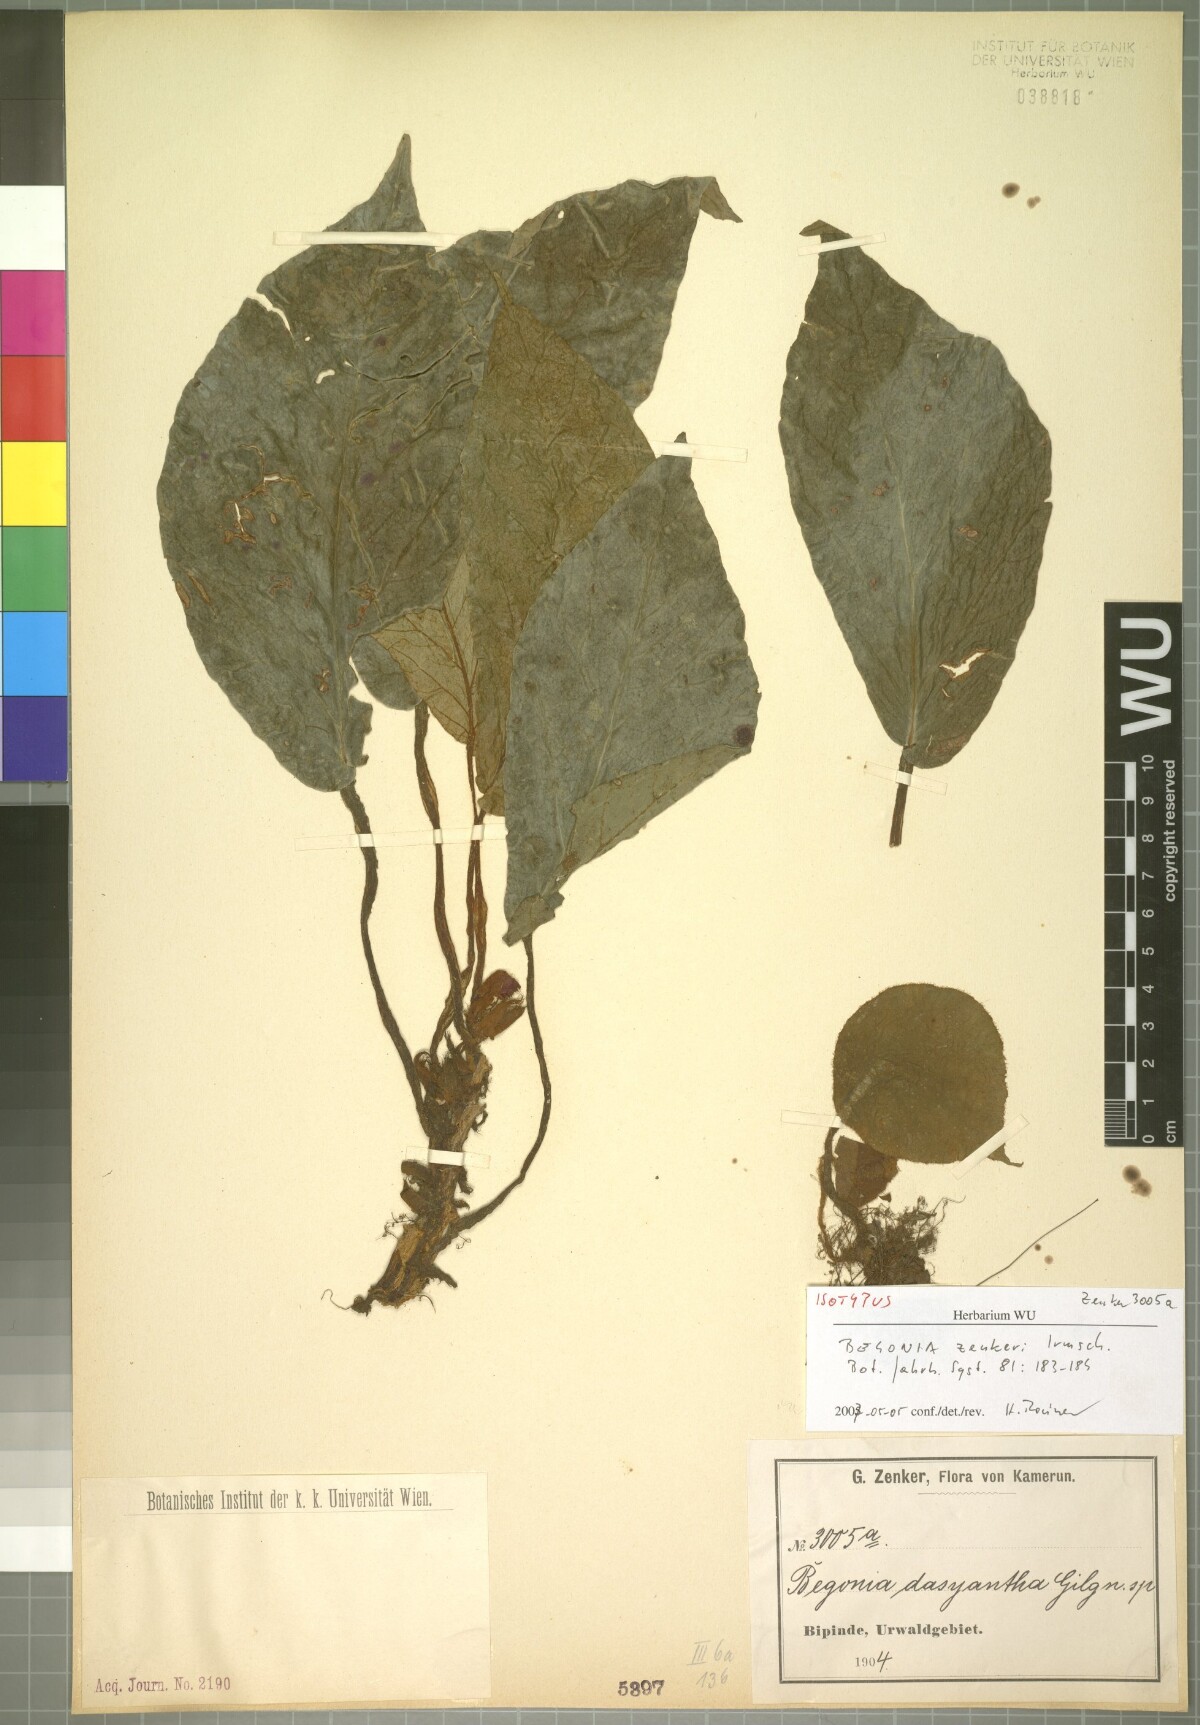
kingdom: Plantae
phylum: Tracheophyta
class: Magnoliopsida
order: Cucurbitales
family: Begoniaceae
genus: Begonia
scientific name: Begonia zenkeriana
